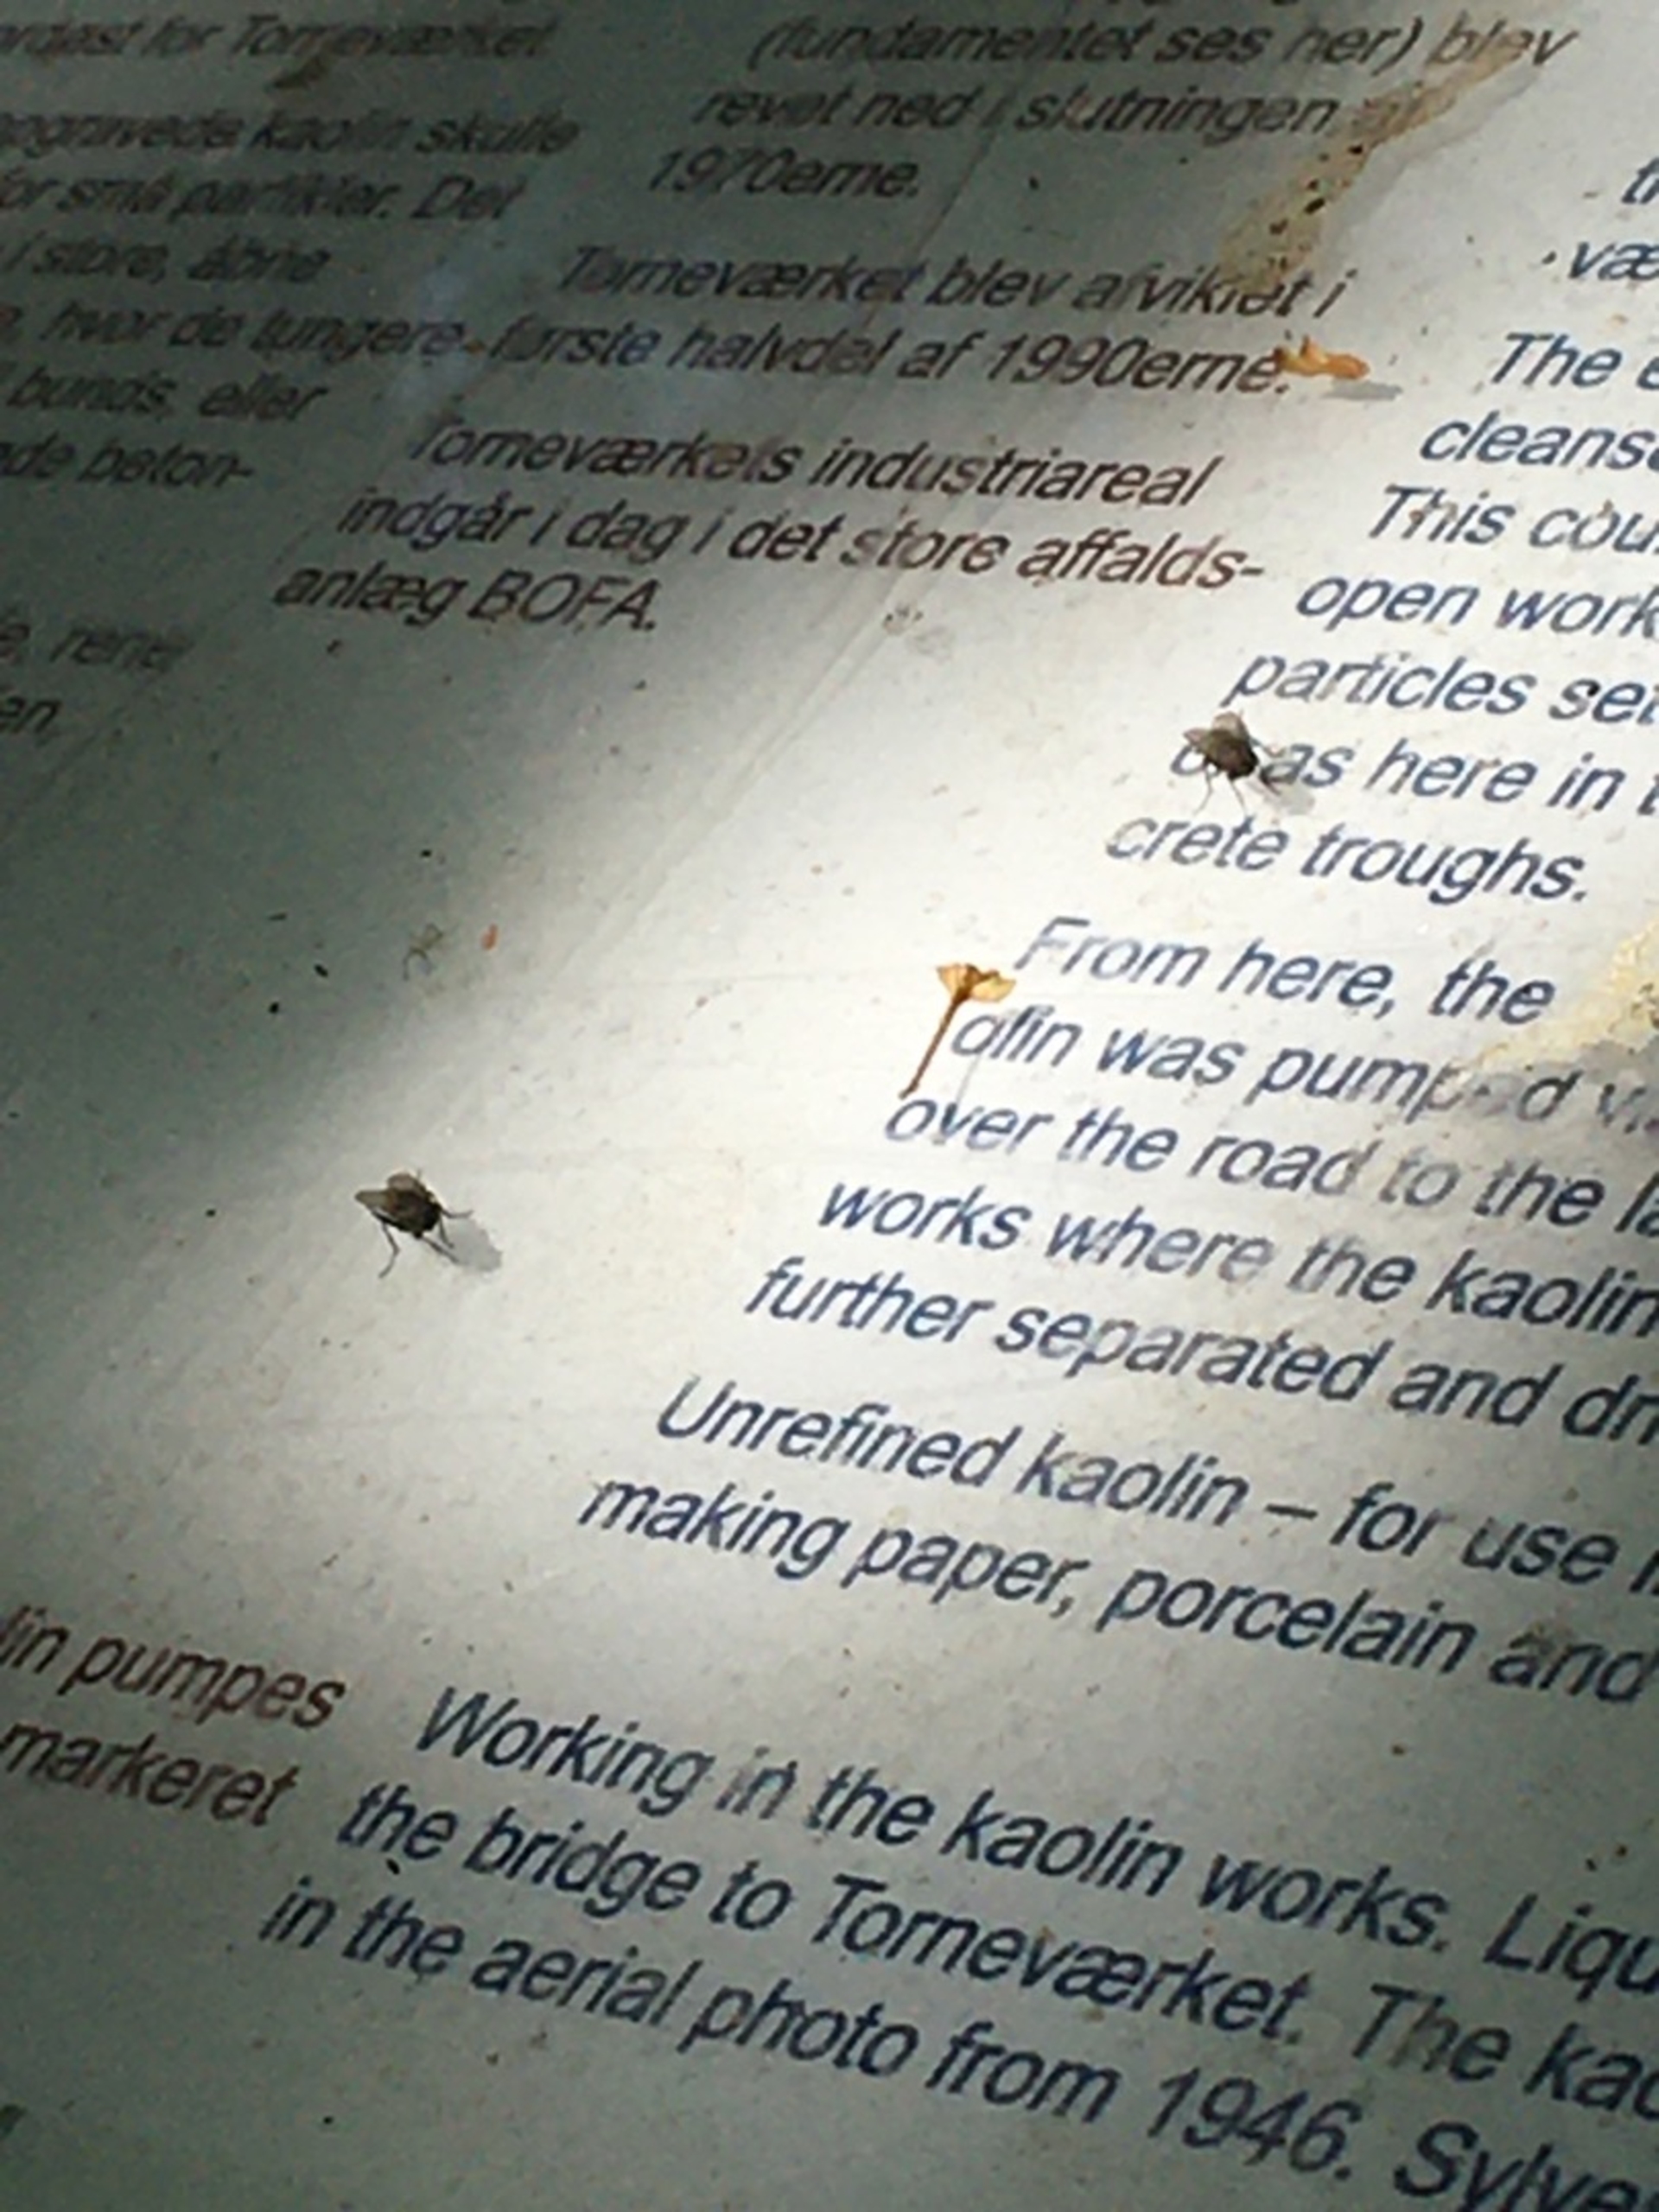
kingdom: Animalia
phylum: Arthropoda
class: Insecta
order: Diptera
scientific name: Diptera
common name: Tovinger
